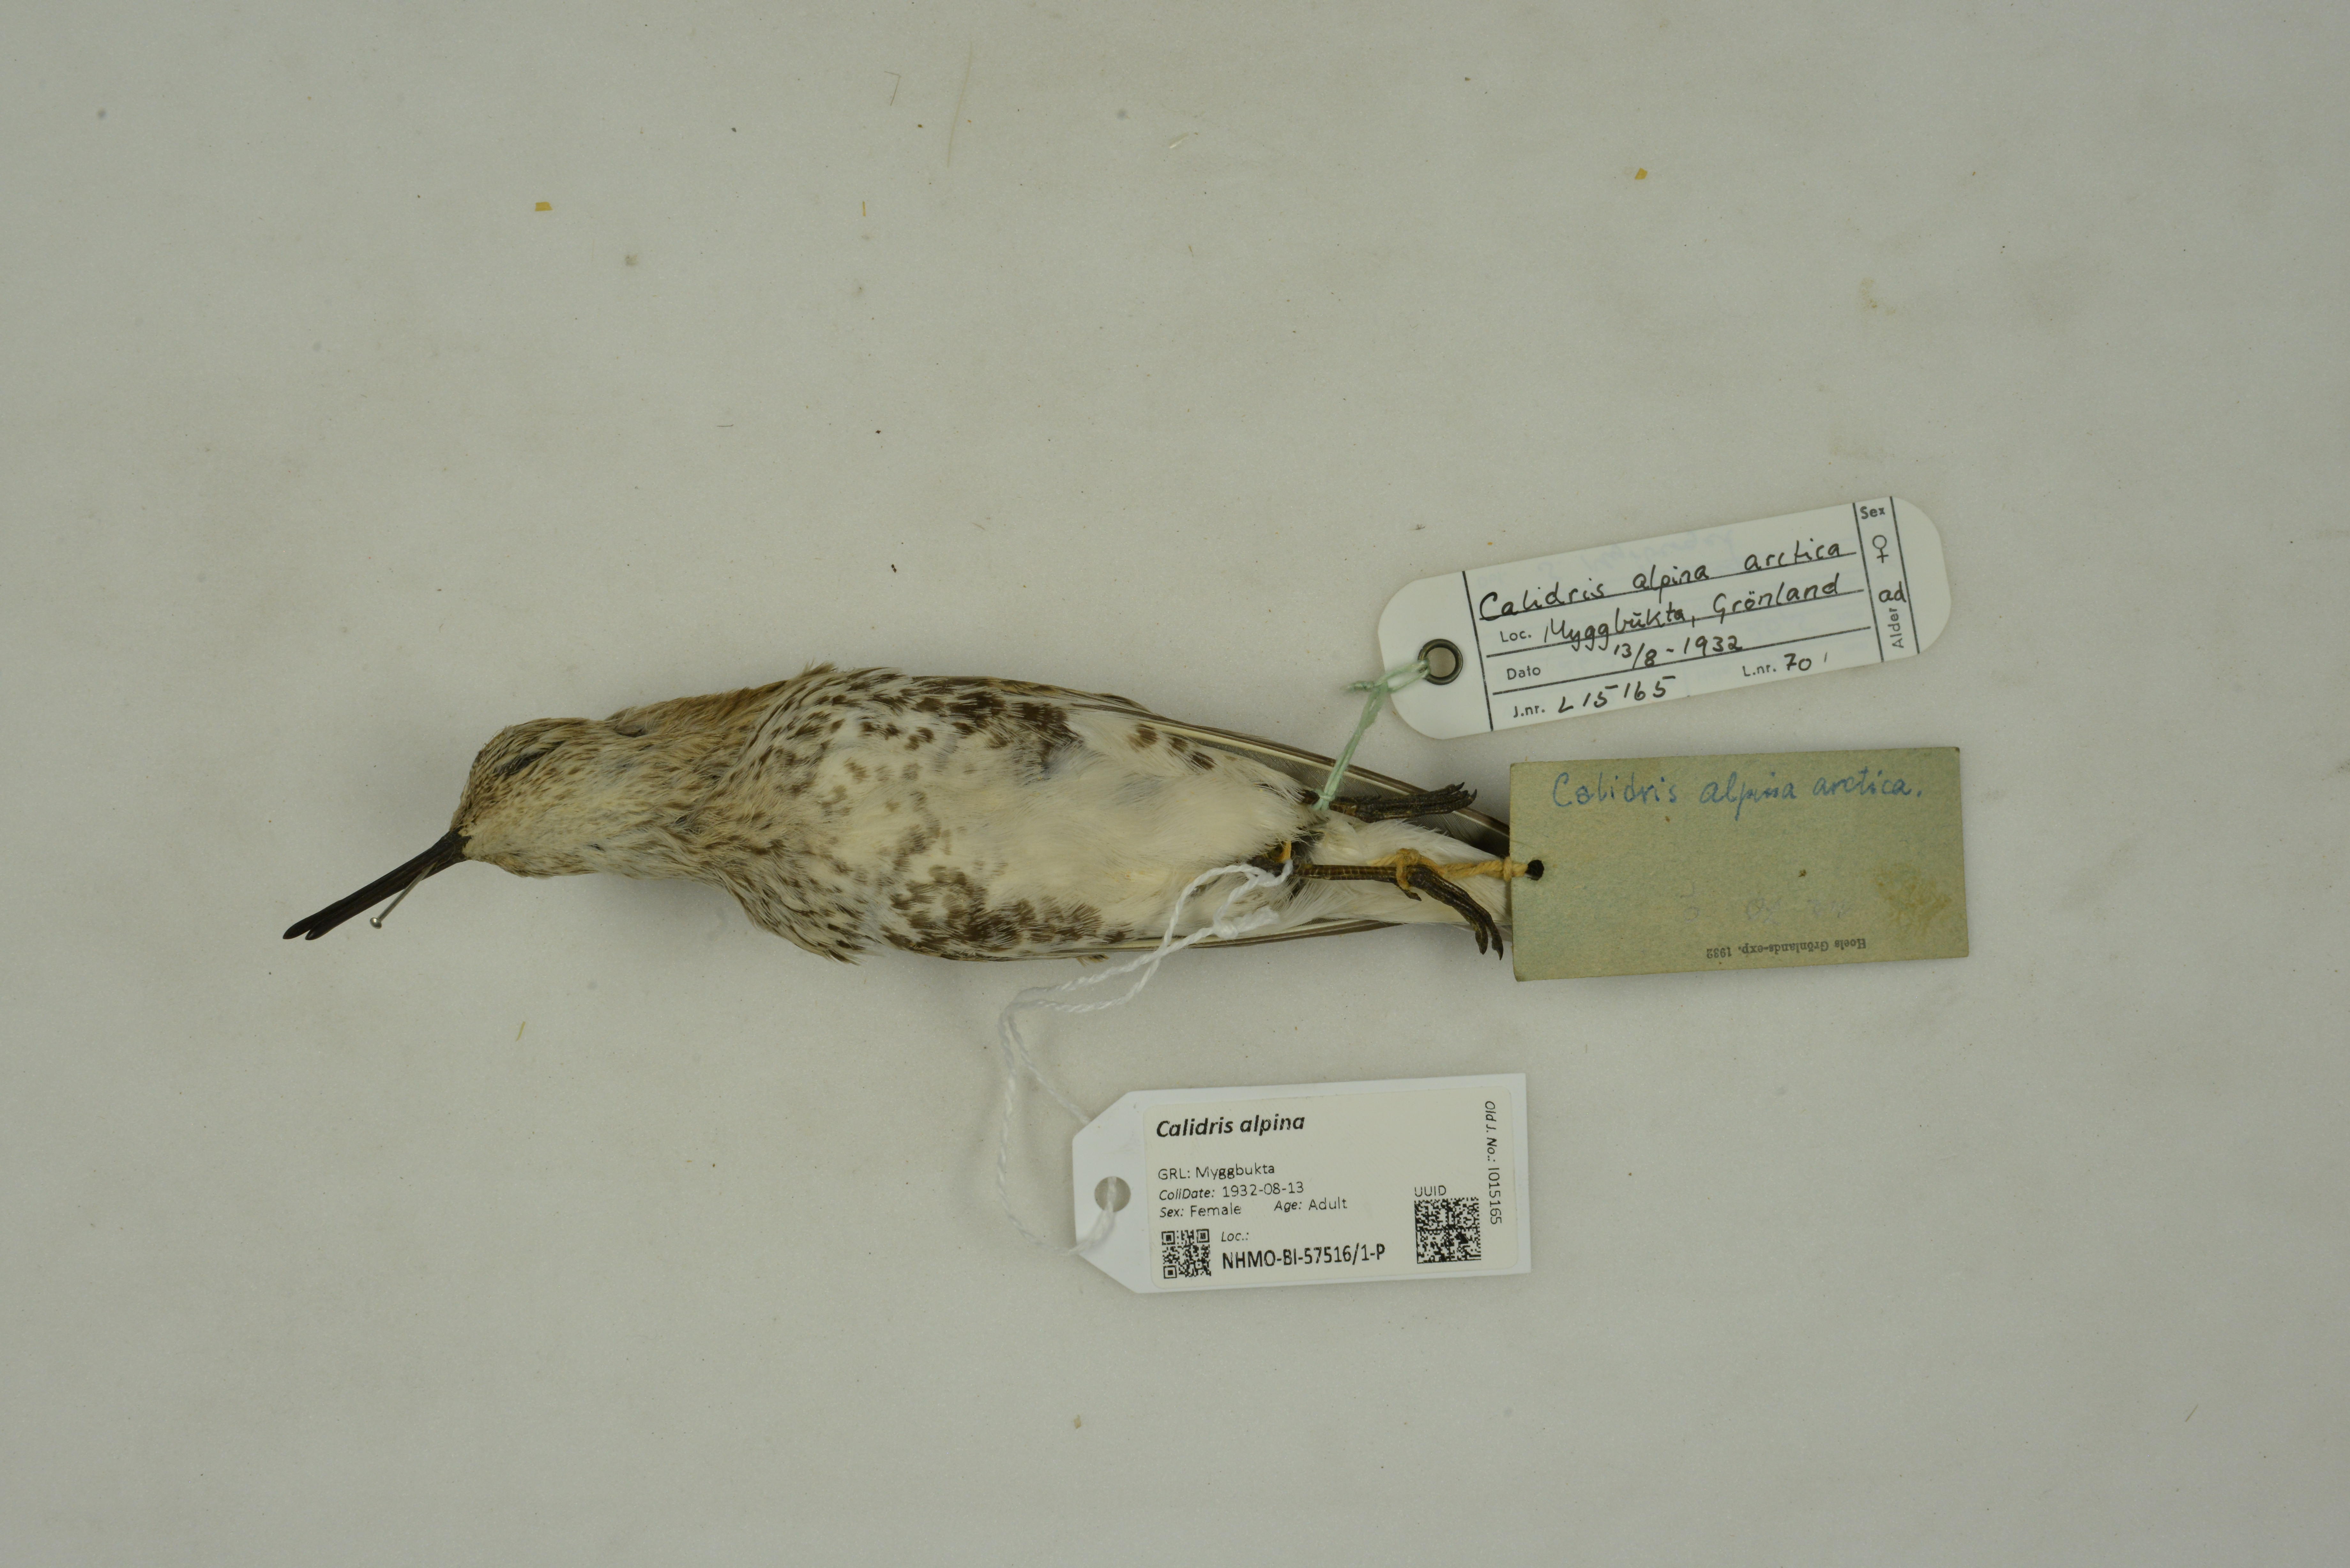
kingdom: Animalia
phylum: Chordata
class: Aves
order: Charadriiformes
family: Scolopacidae
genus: Calidris
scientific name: Calidris alpina
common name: Dunlin
